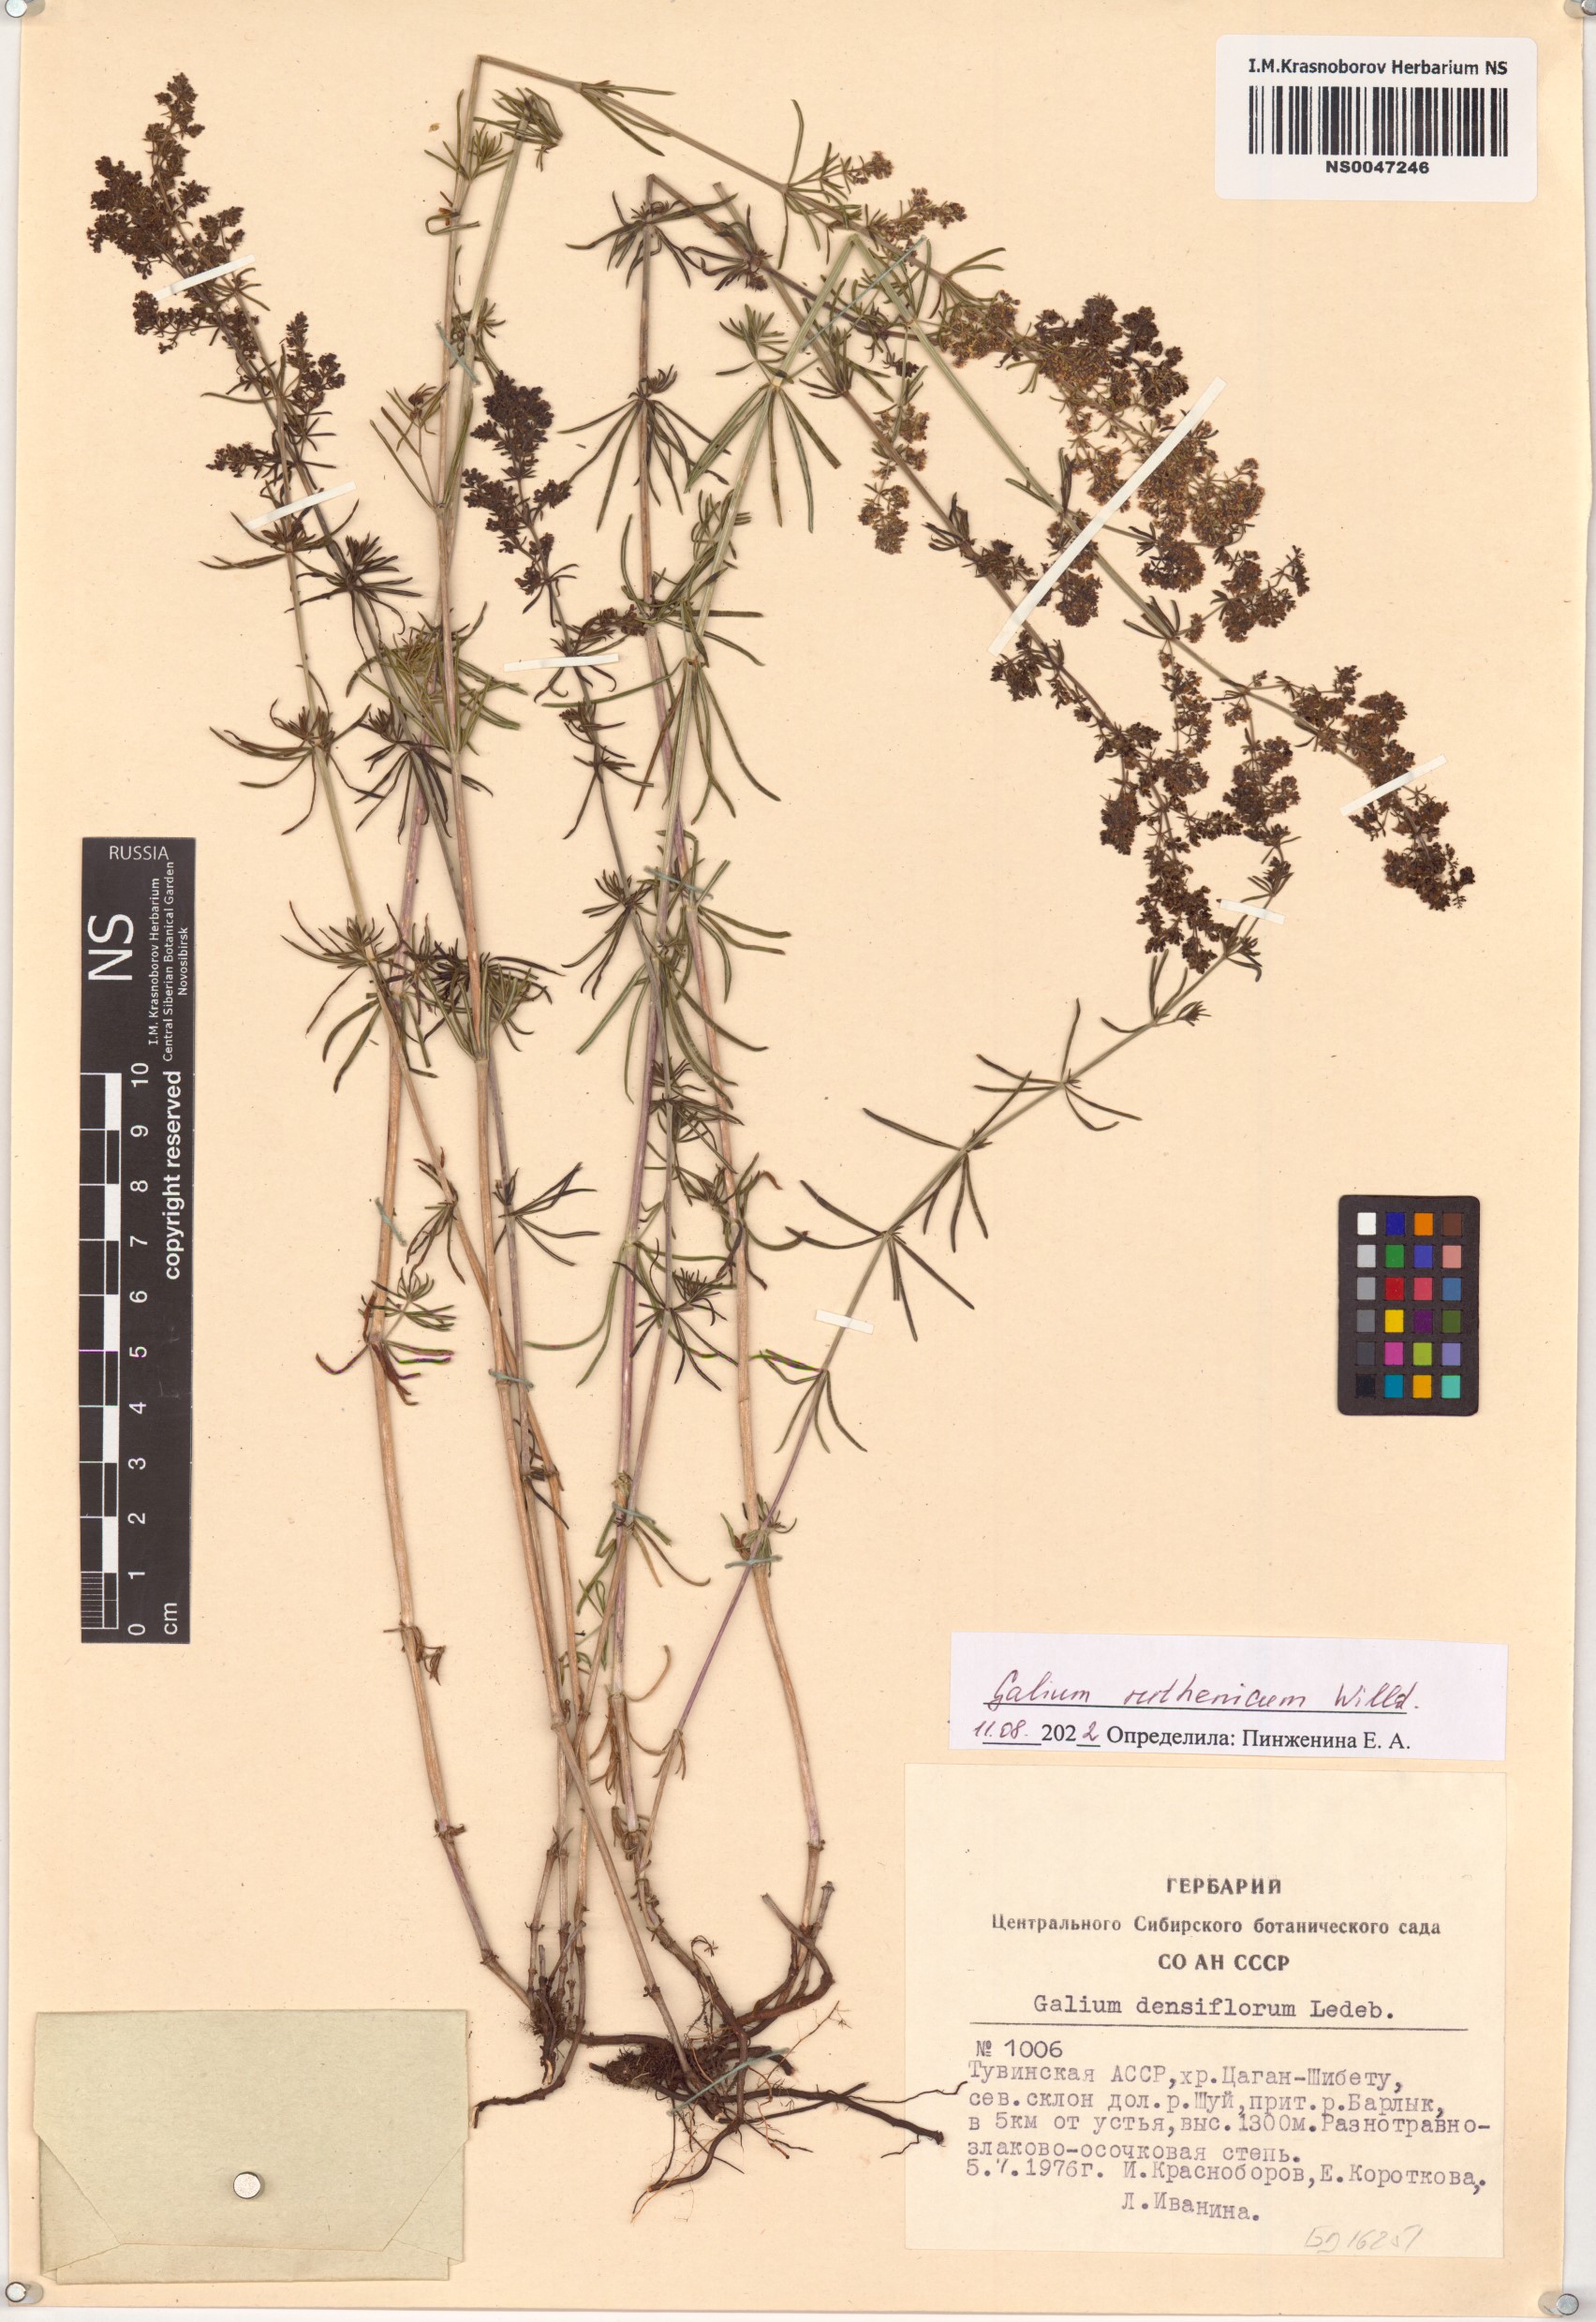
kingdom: Plantae
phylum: Tracheophyta
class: Magnoliopsida
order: Gentianales
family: Rubiaceae
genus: Galium
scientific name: Galium verum
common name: Lady's bedstraw
